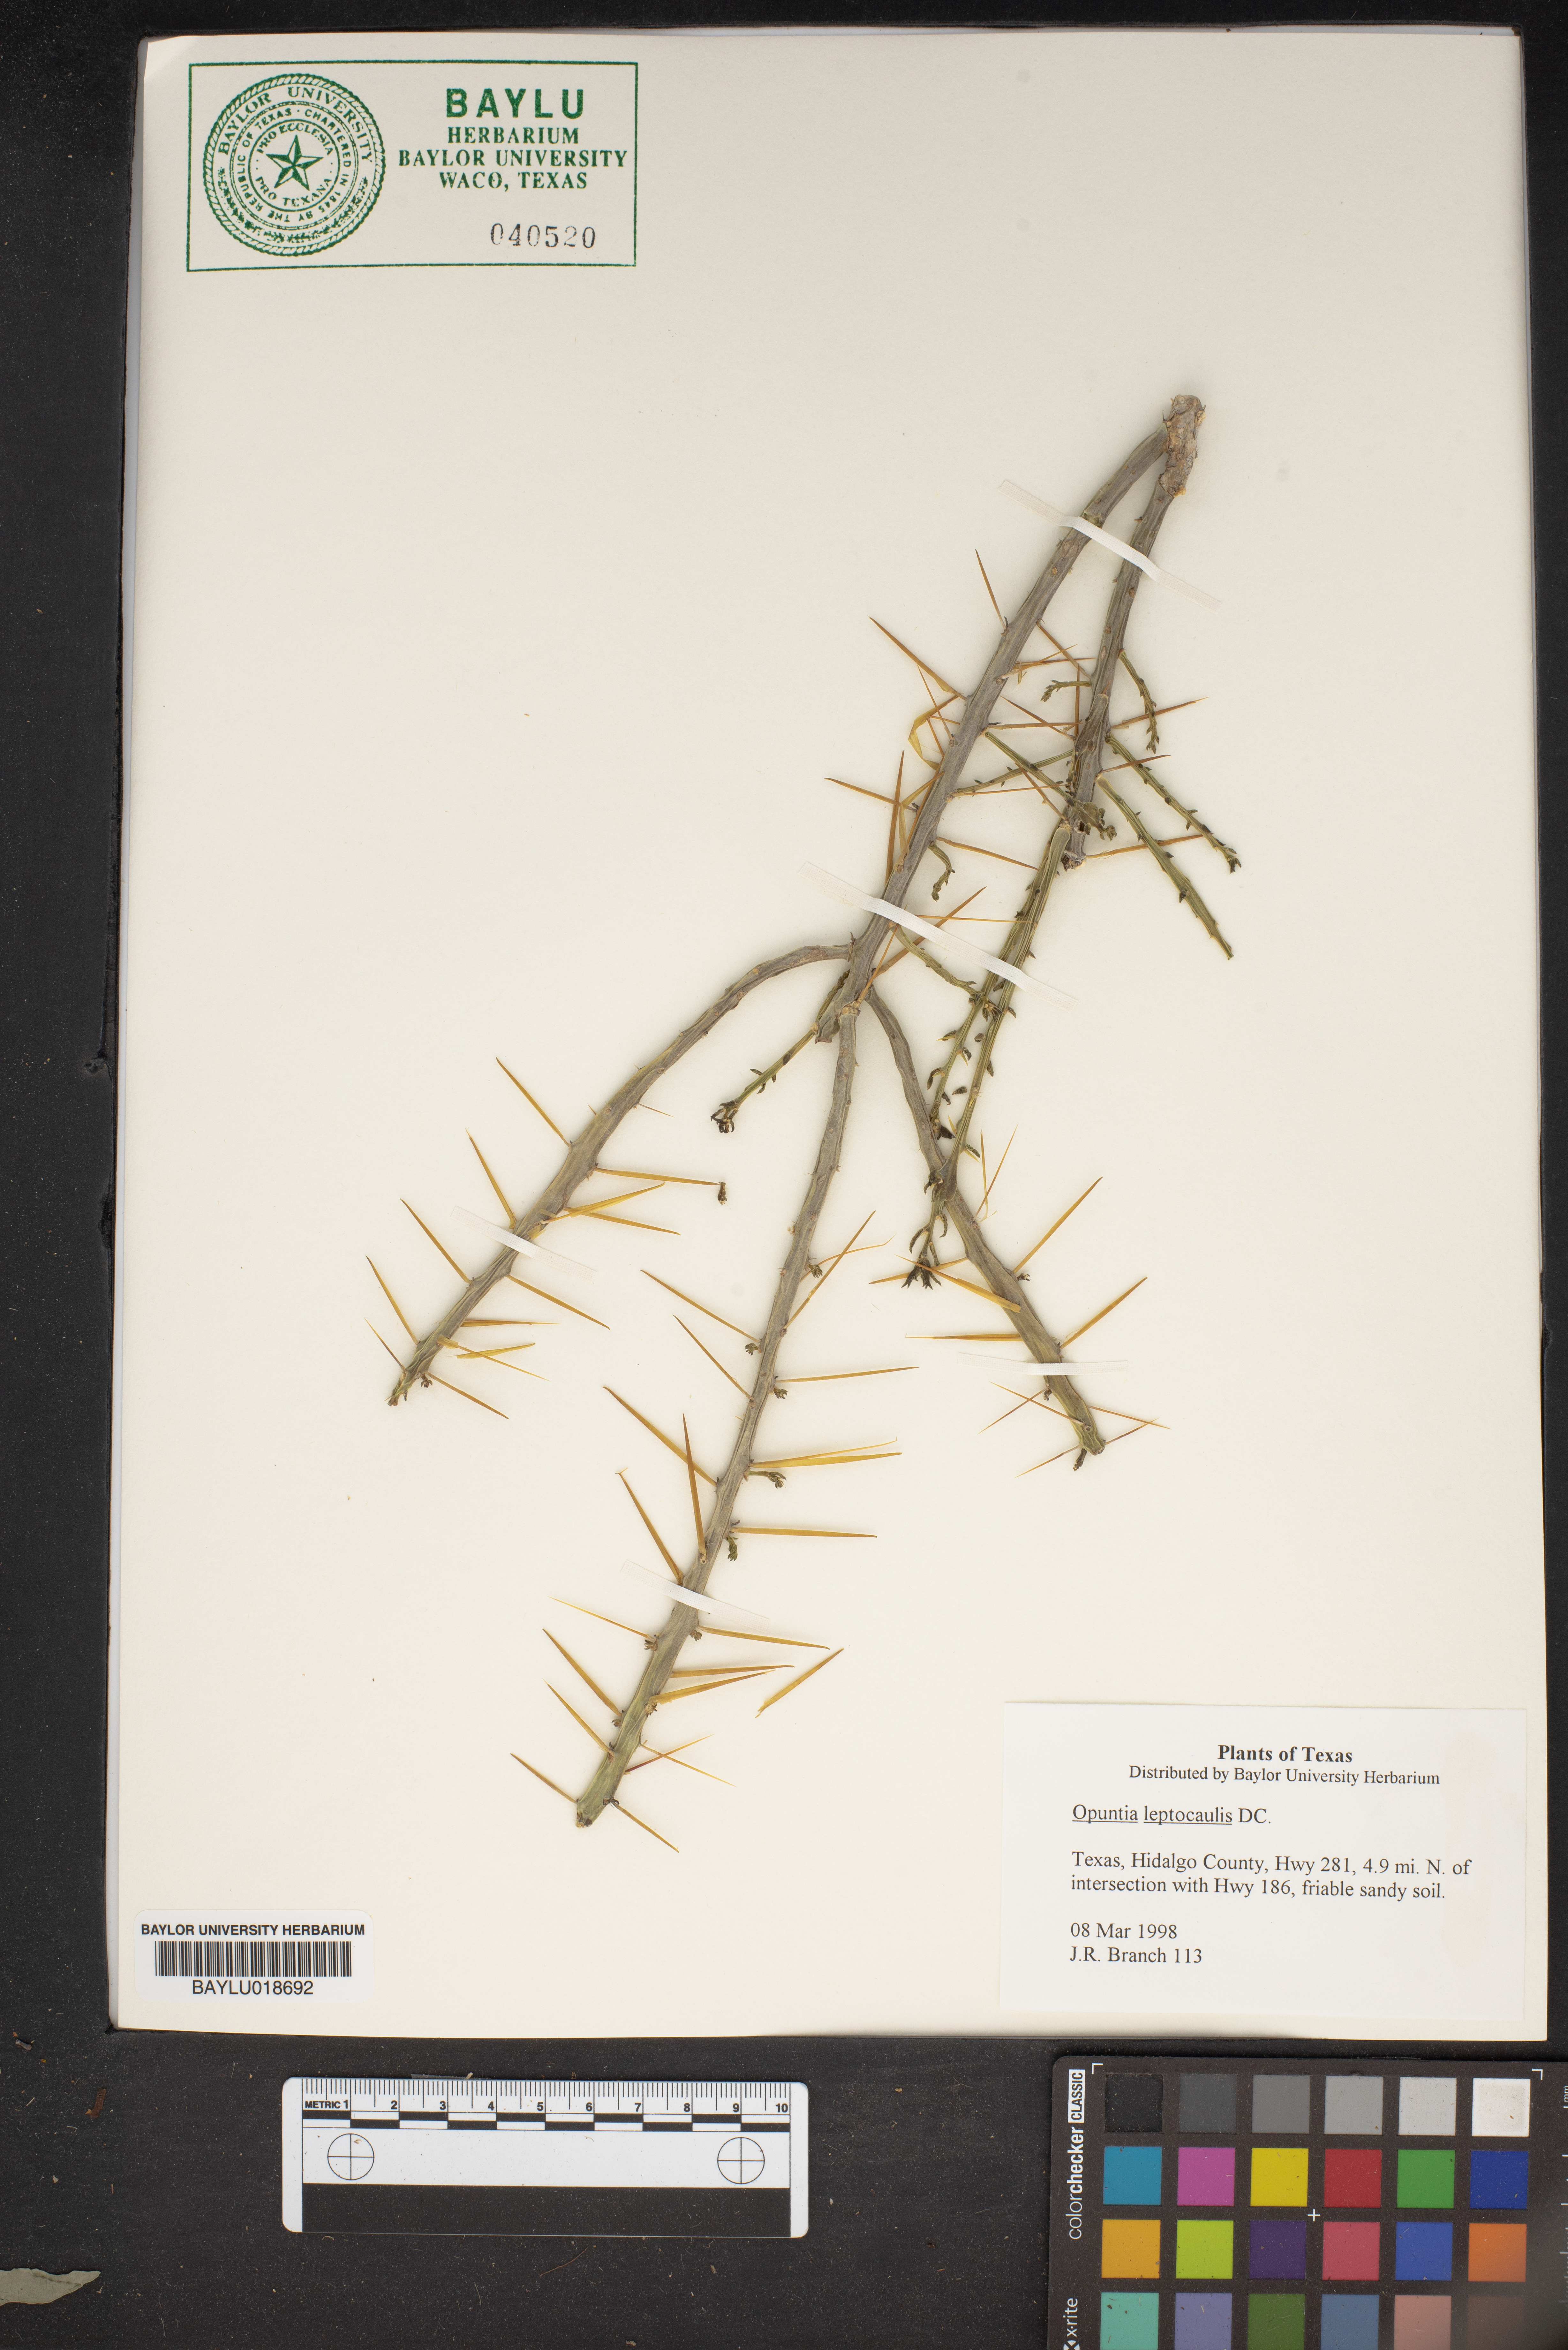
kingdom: Plantae
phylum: Tracheophyta
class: Magnoliopsida
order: Caryophyllales
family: Cactaceae
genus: Cylindropuntia
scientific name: Cylindropuntia leptocaulis
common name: Christmas cactus
